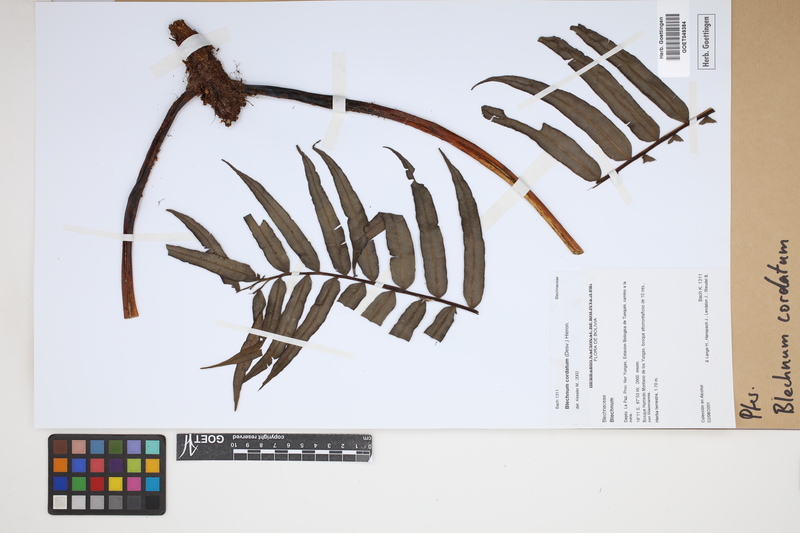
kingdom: Plantae
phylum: Tracheophyta
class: Polypodiopsida
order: Polypodiales
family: Blechnaceae
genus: Parablechnum
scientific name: Parablechnum cordatum
